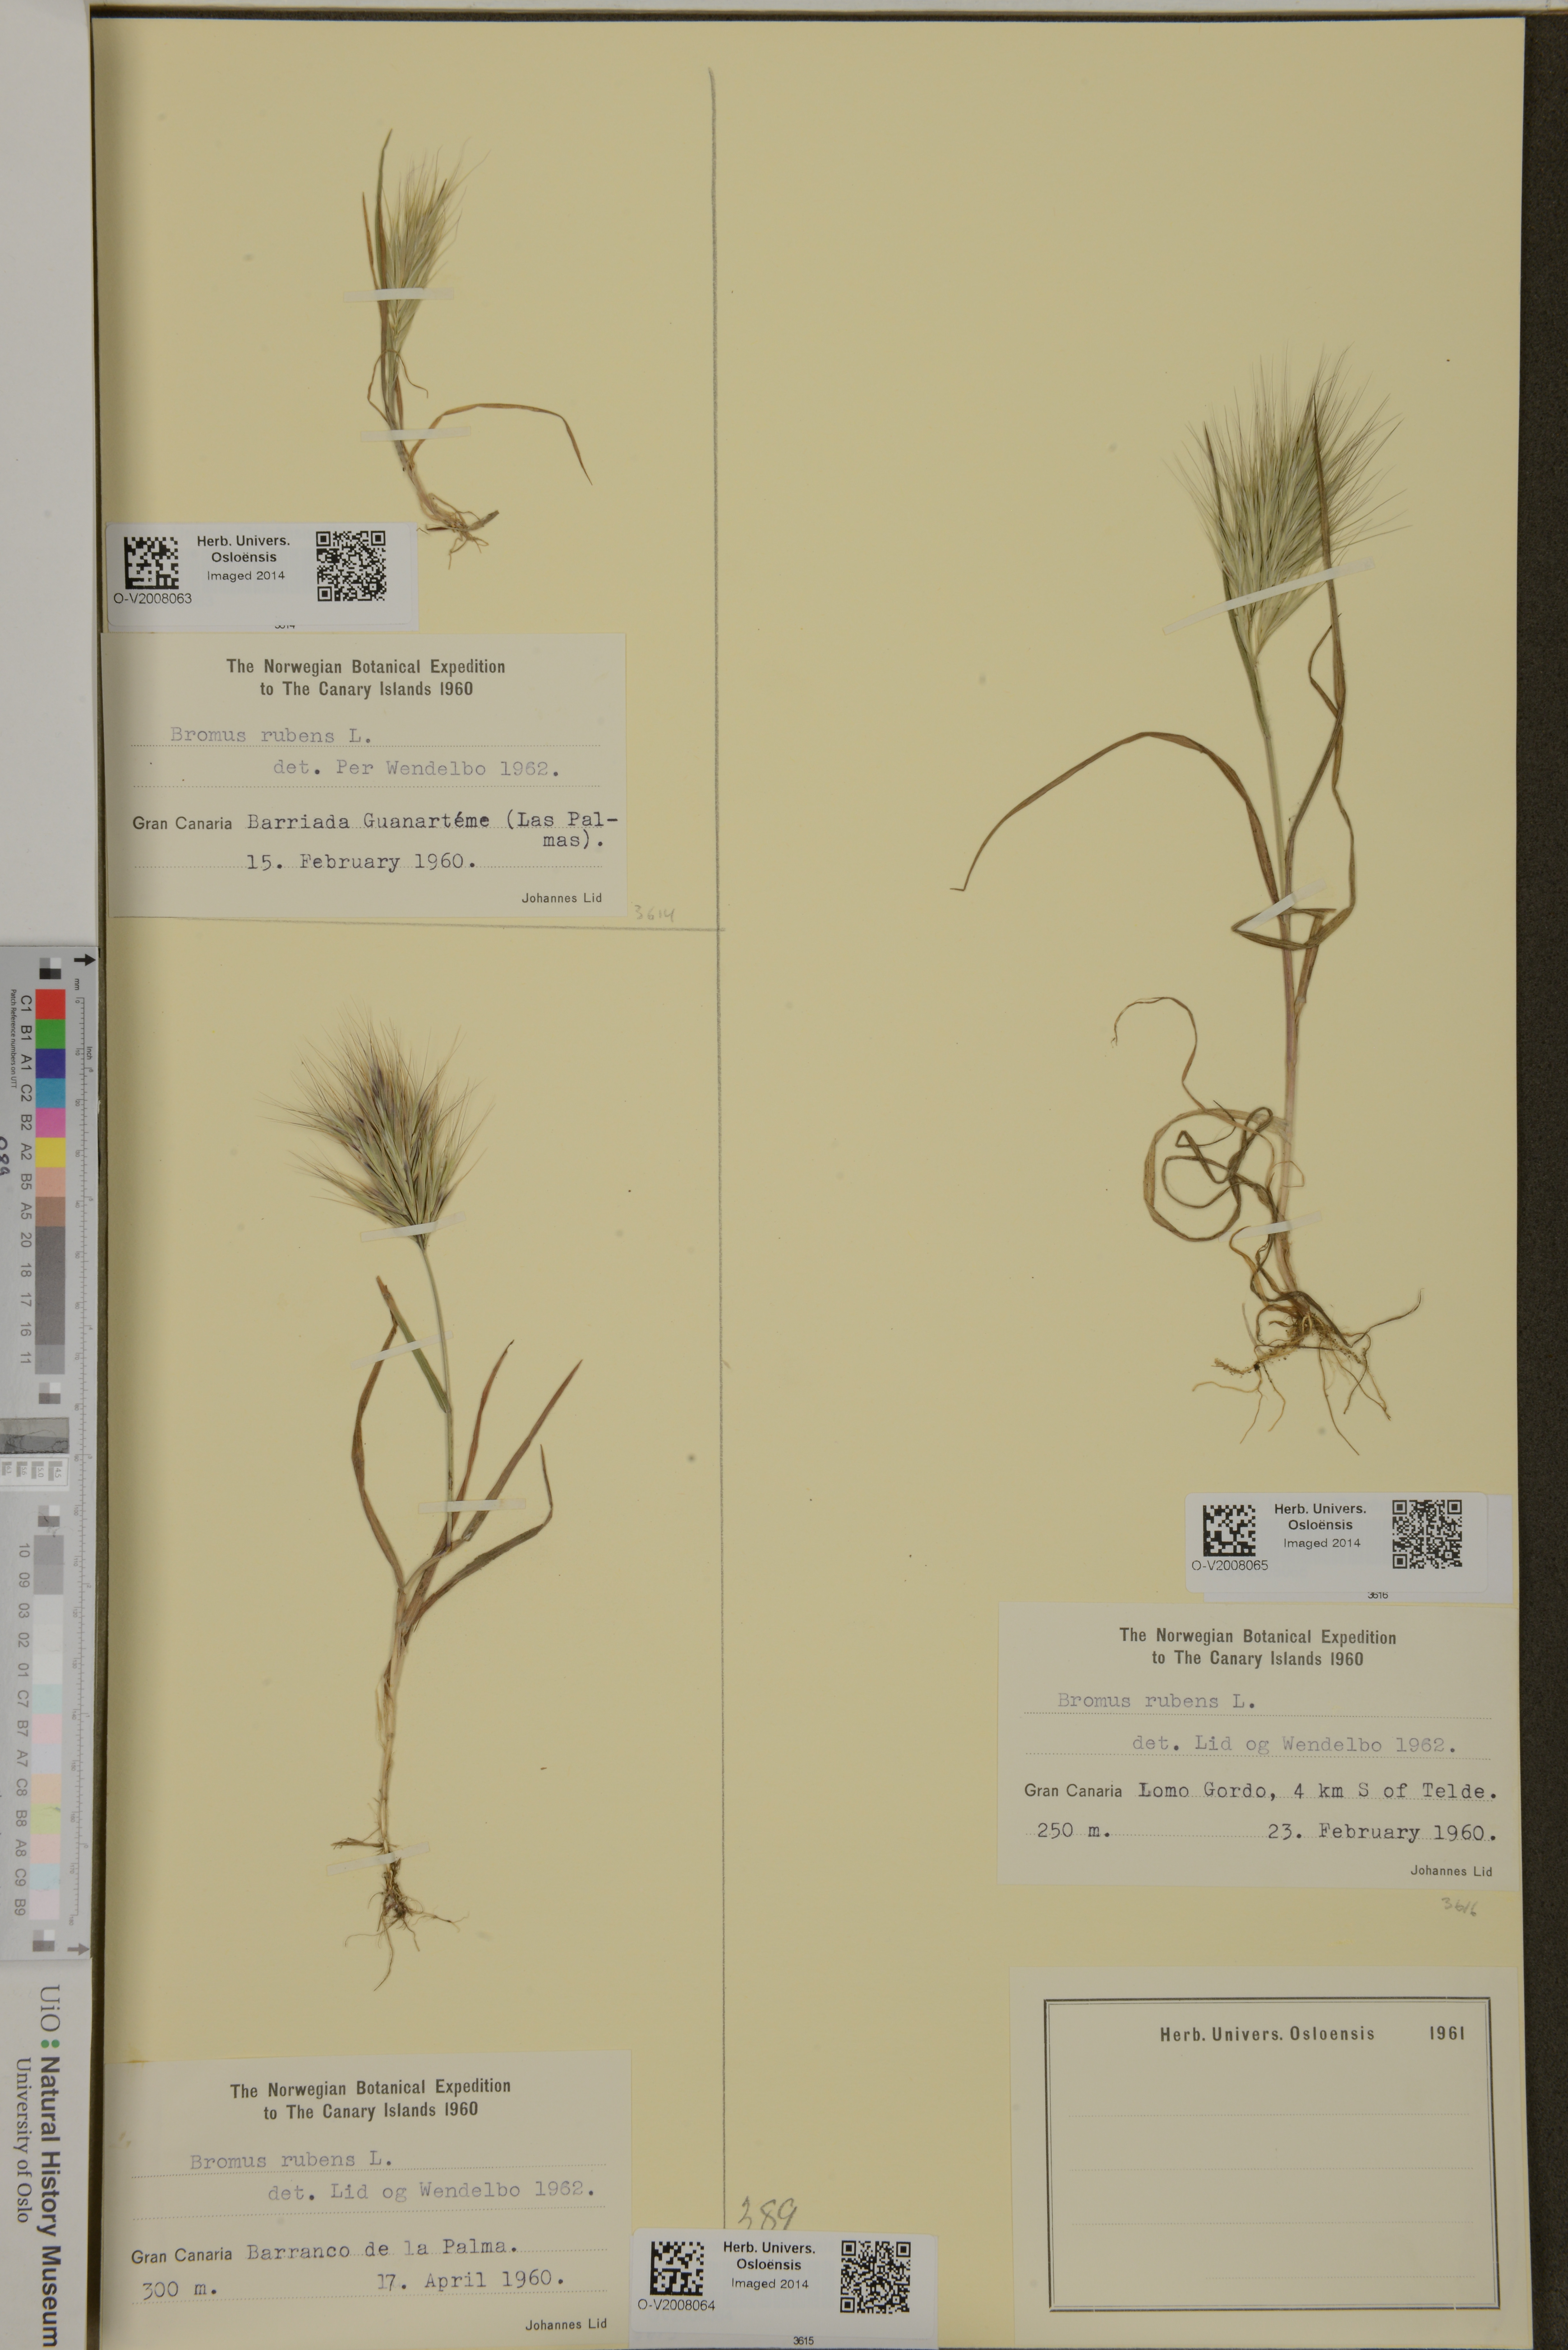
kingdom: Plantae
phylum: Tracheophyta
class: Liliopsida
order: Poales
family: Poaceae
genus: Bromus
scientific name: Bromus rubens
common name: Red brome
